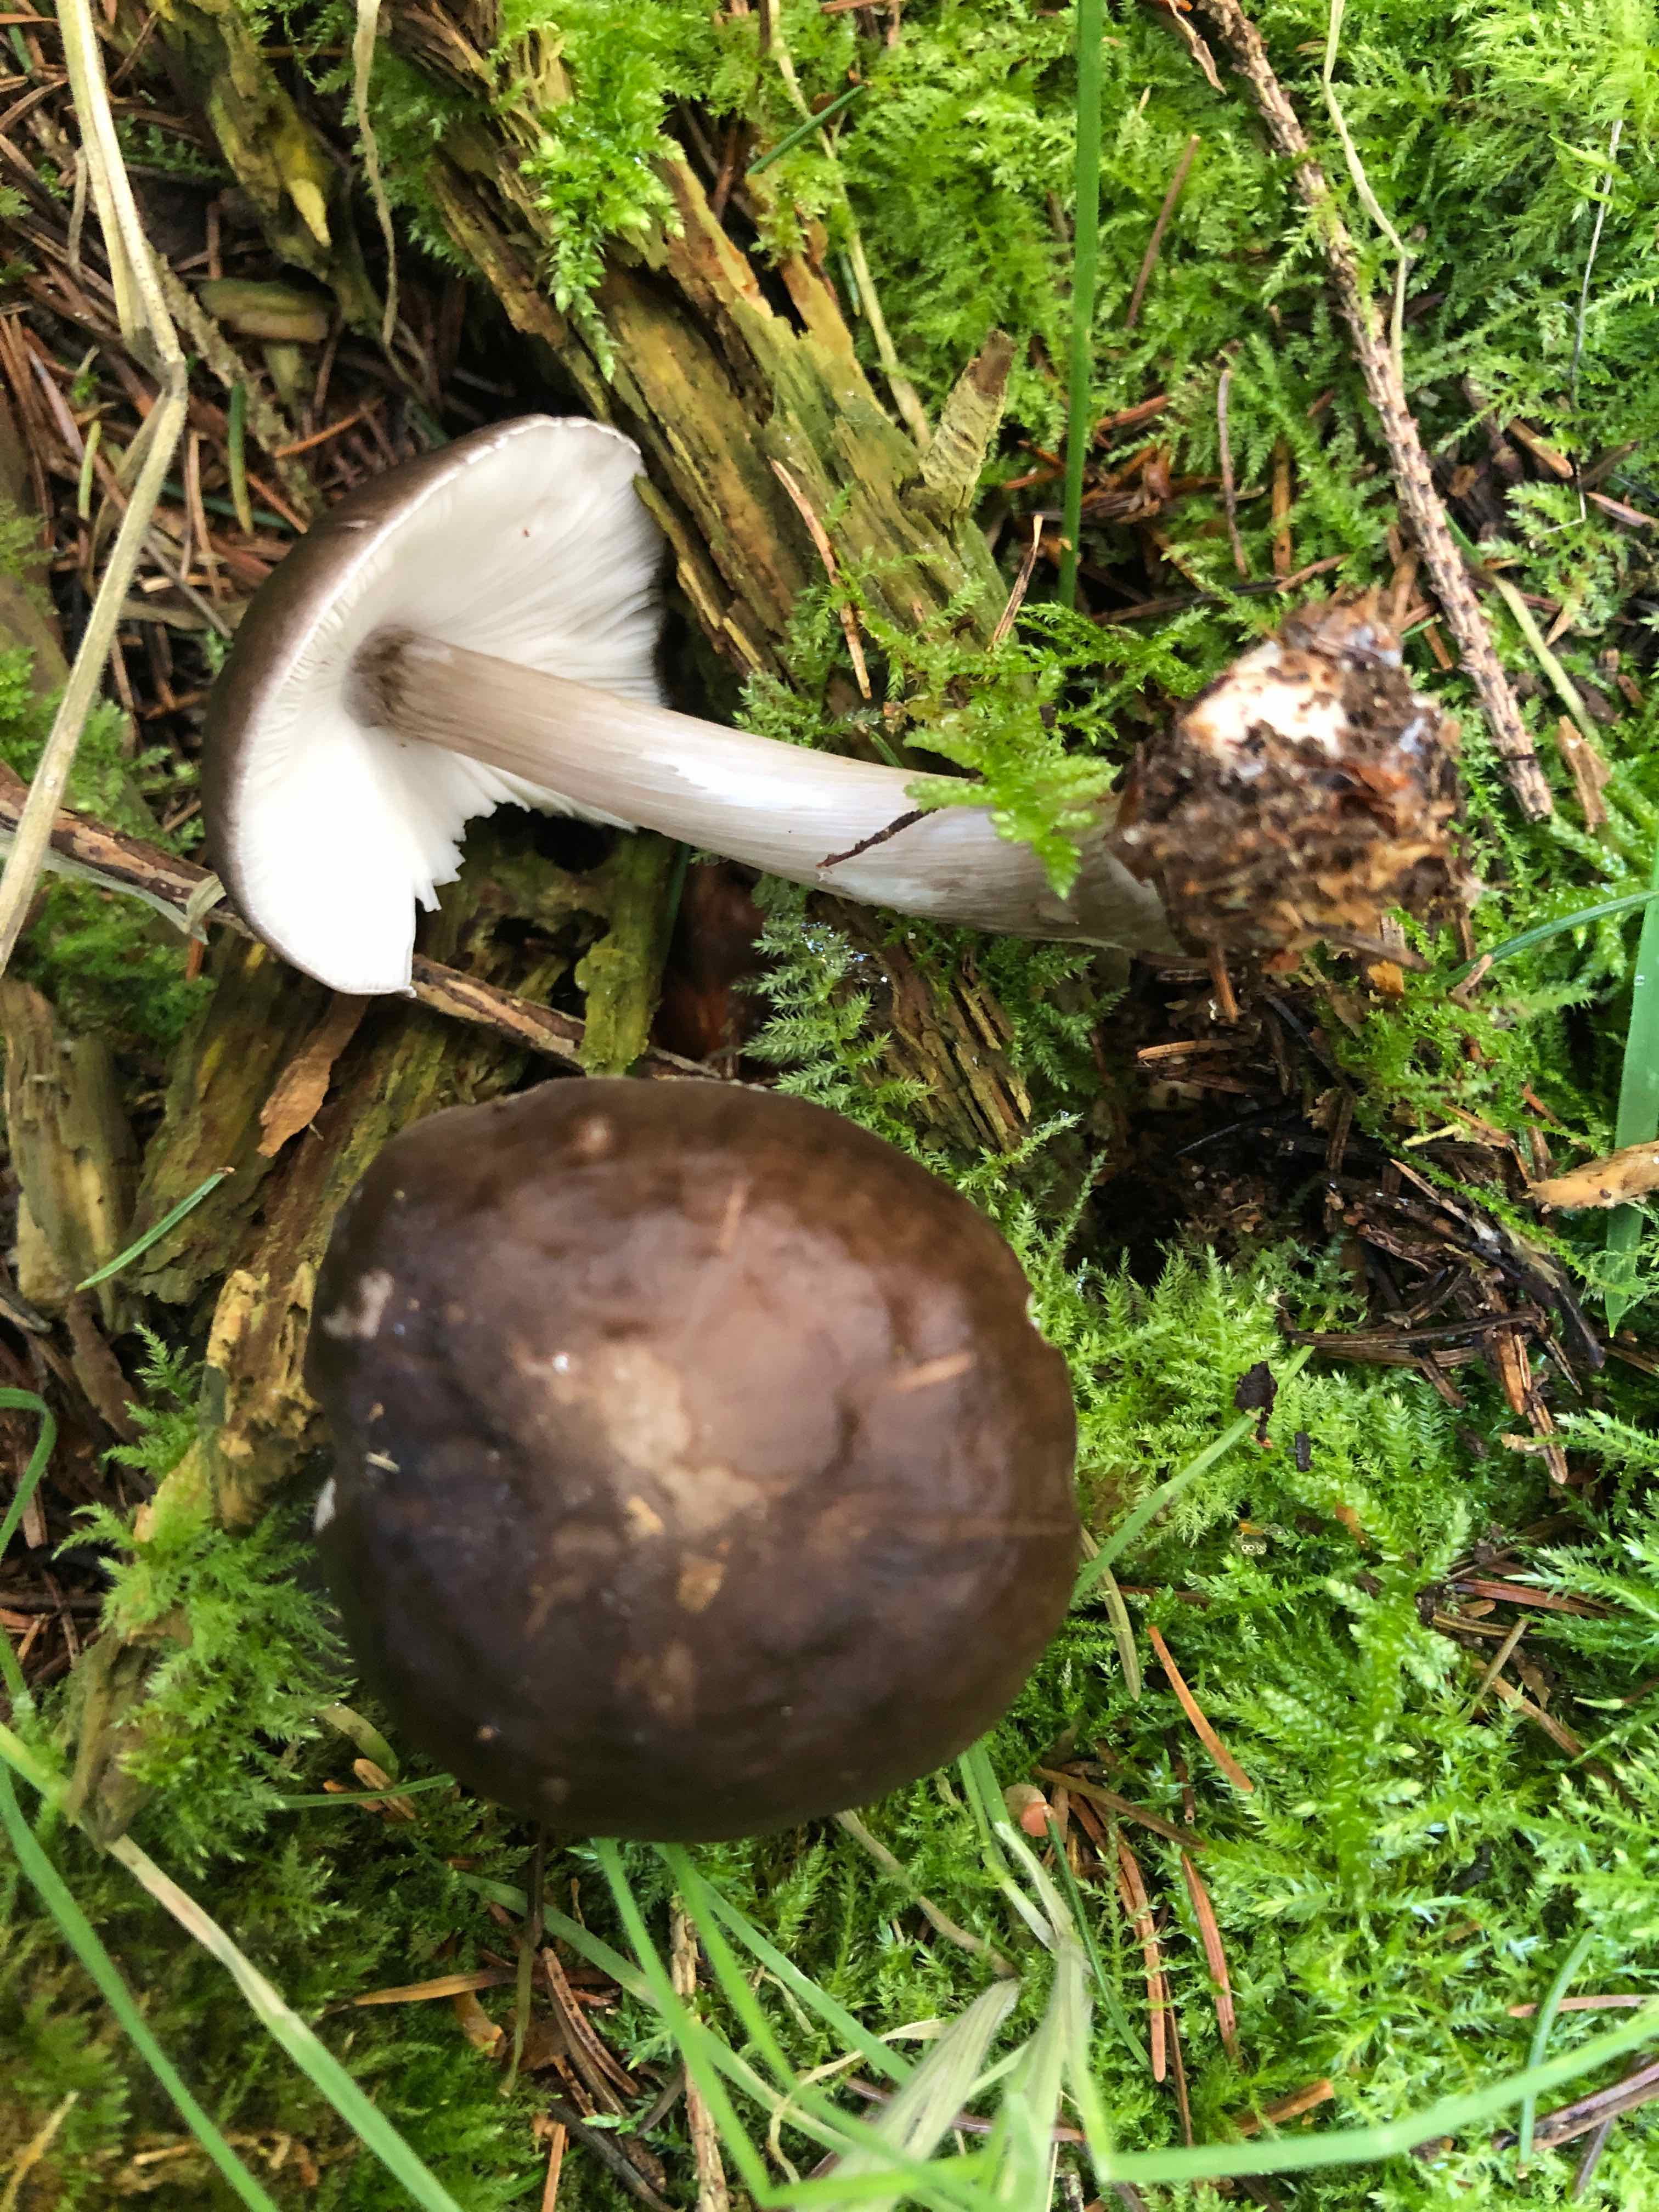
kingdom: Fungi
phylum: Basidiomycota
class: Agaricomycetes
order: Agaricales
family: Pluteaceae
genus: Pluteus
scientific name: Pluteus cervinus
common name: sodfarvet skærmhat
